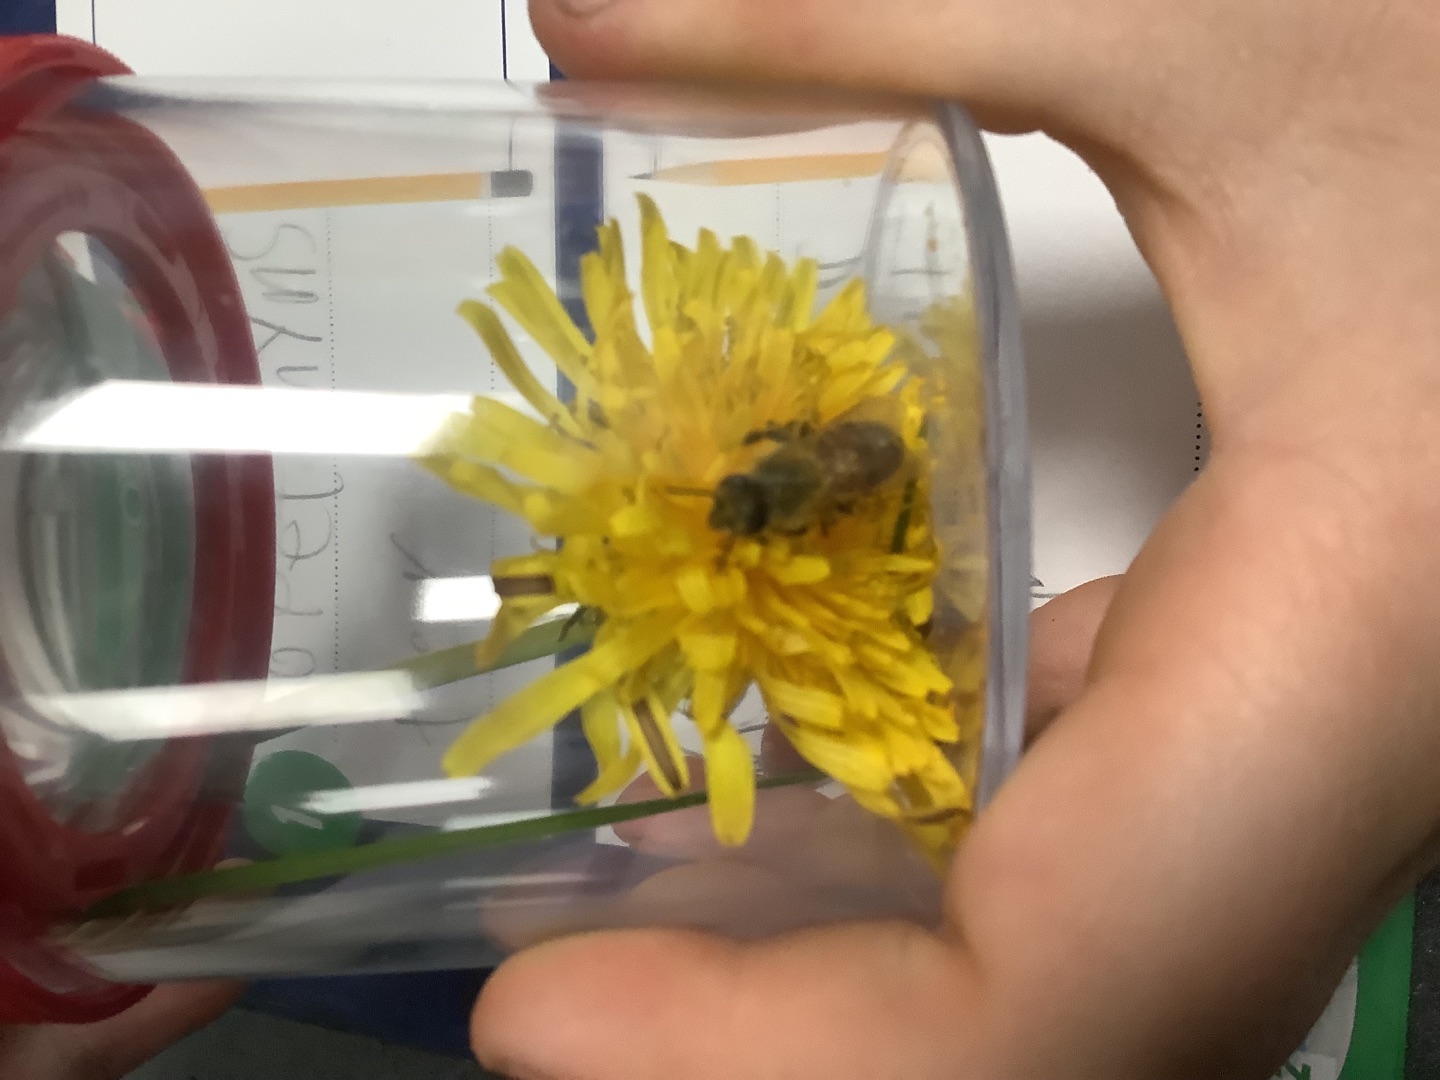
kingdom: Animalia
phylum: Arthropoda
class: Insecta
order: Hymenoptera
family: Apidae
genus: Apis
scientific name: Apis mellifera
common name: Honningbi
